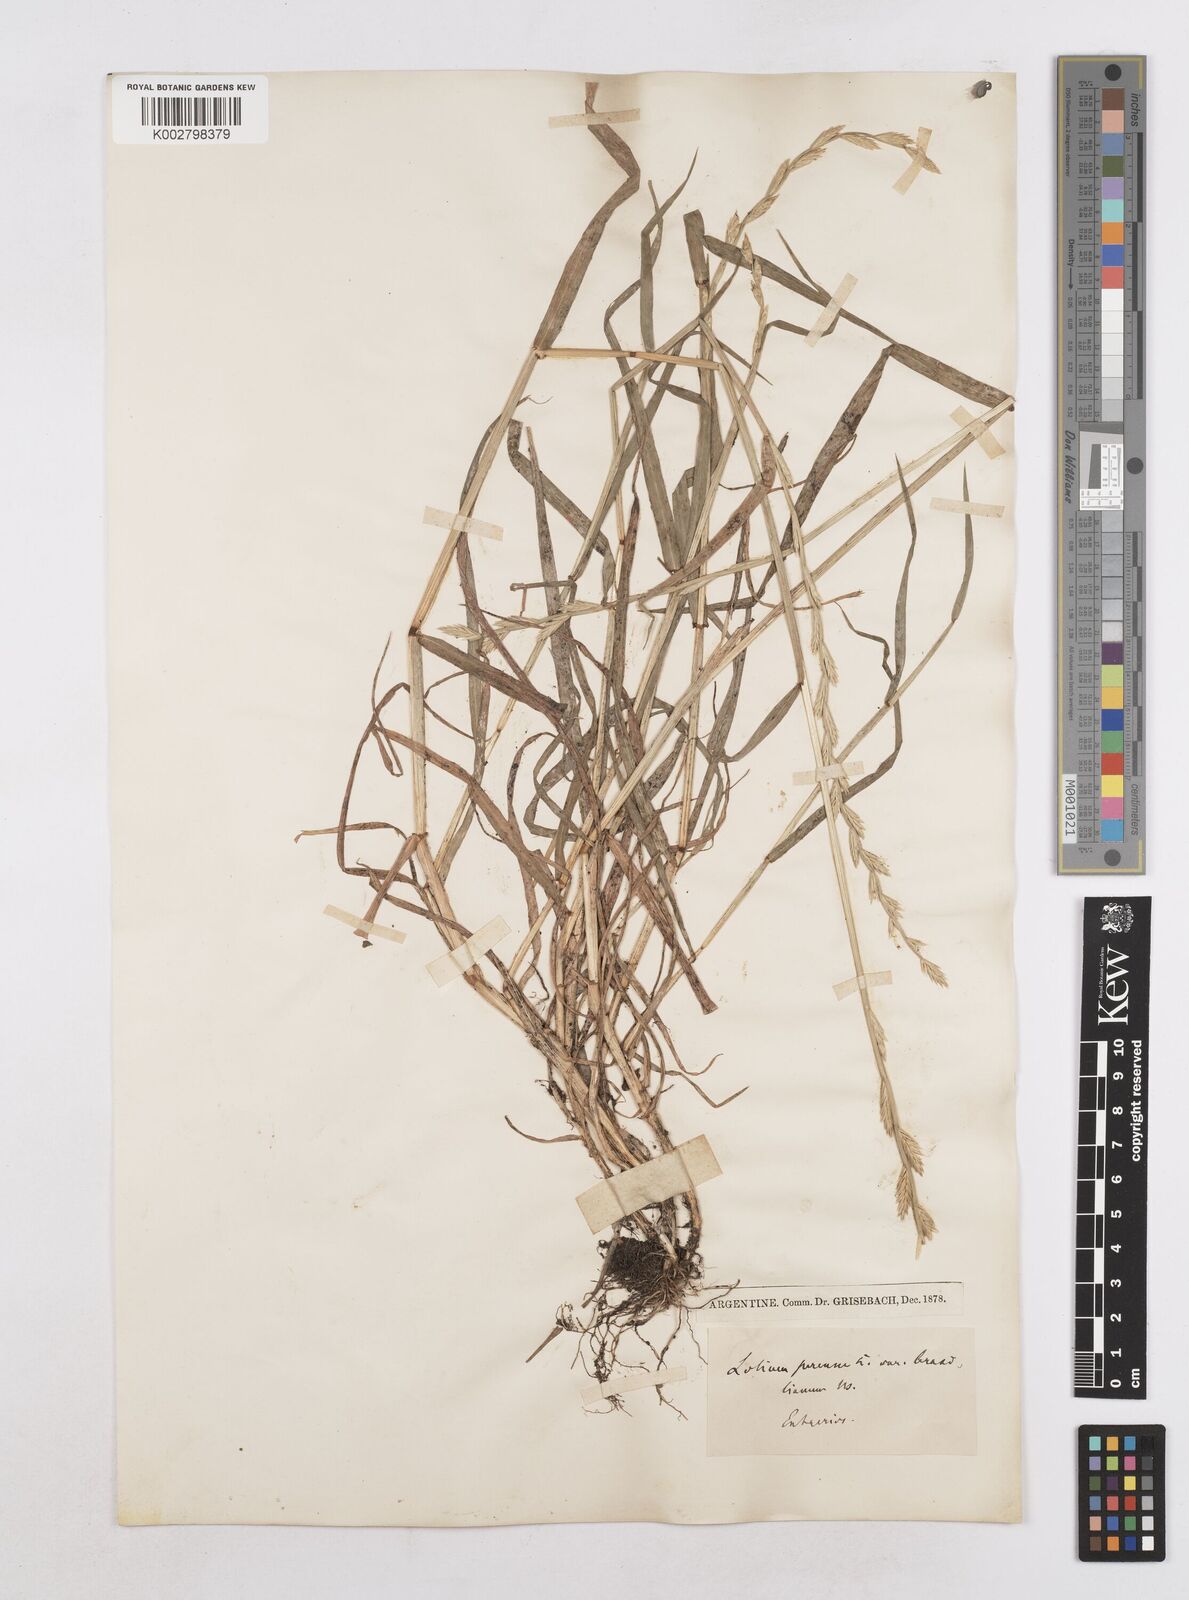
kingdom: Plantae
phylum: Tracheophyta
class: Liliopsida
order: Poales
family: Poaceae
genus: Lolium
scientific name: Lolium multiflorum
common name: Annual ryegrass
